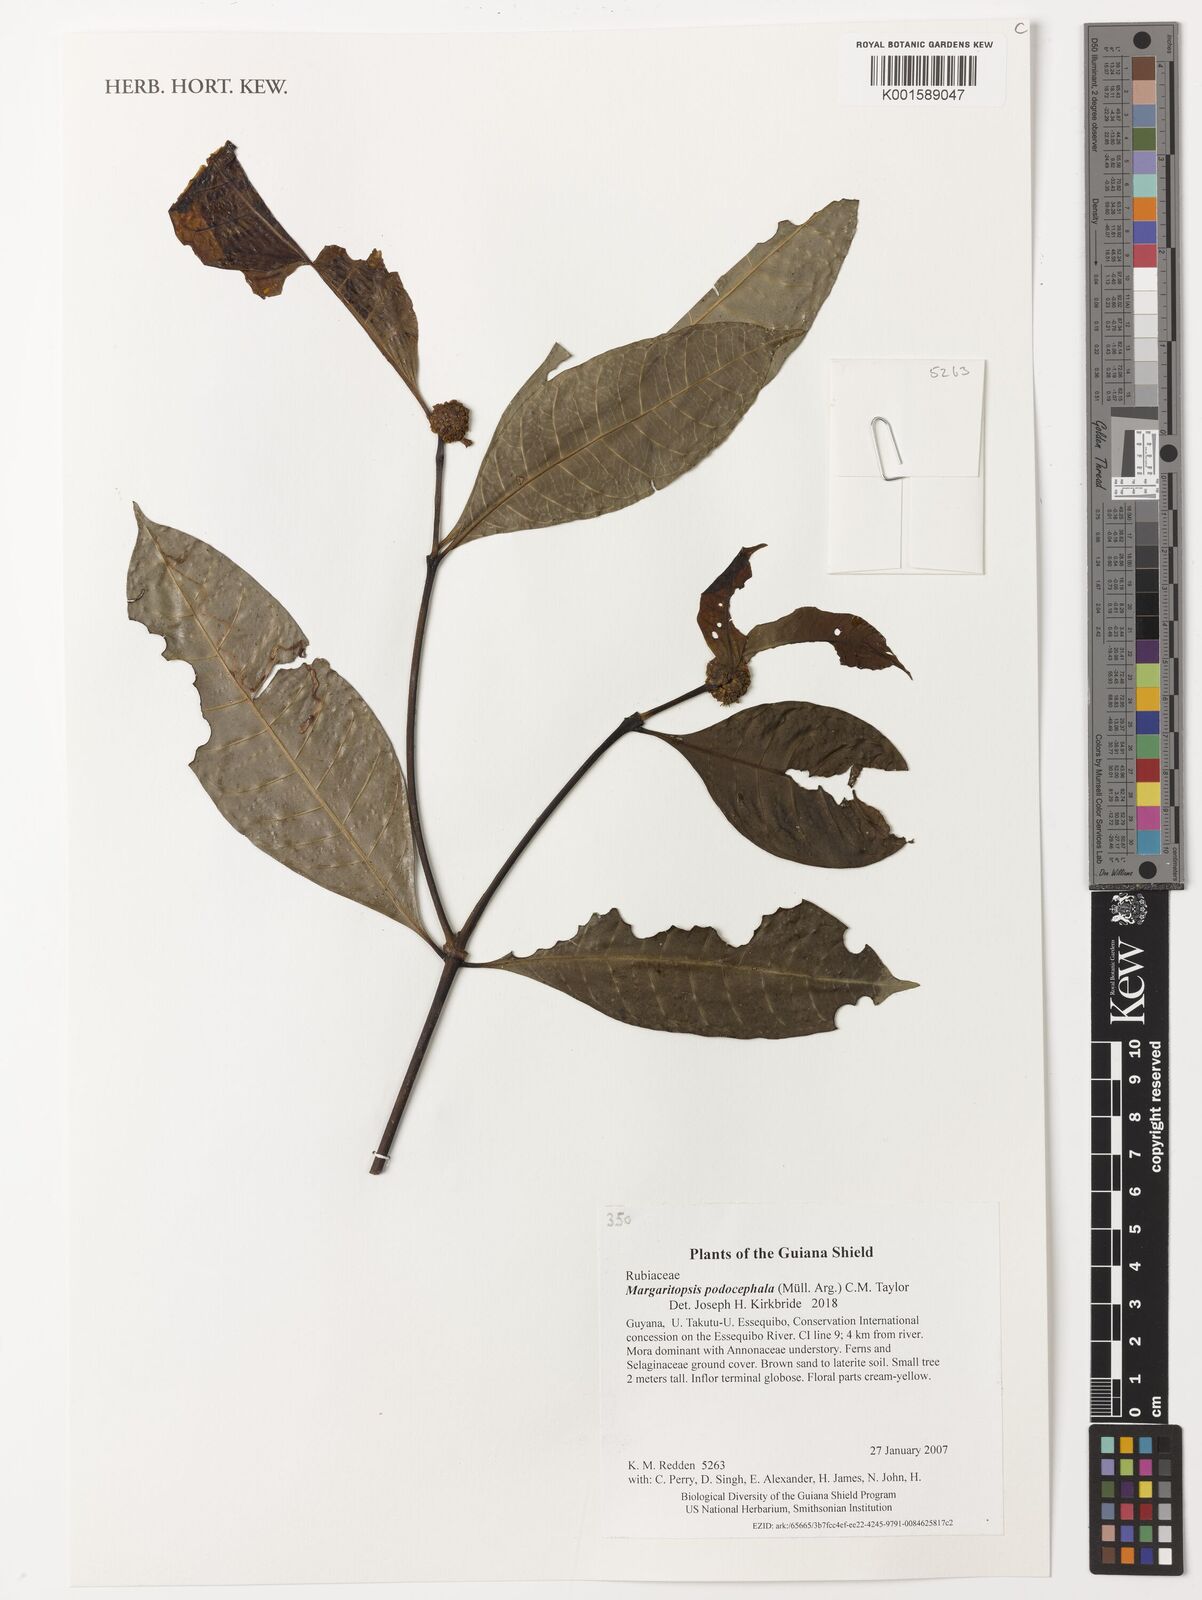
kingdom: Plantae
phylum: Tracheophyta
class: Magnoliopsida
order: Gentianales
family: Rubiaceae
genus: Eumachia
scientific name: Eumachia podocephala
